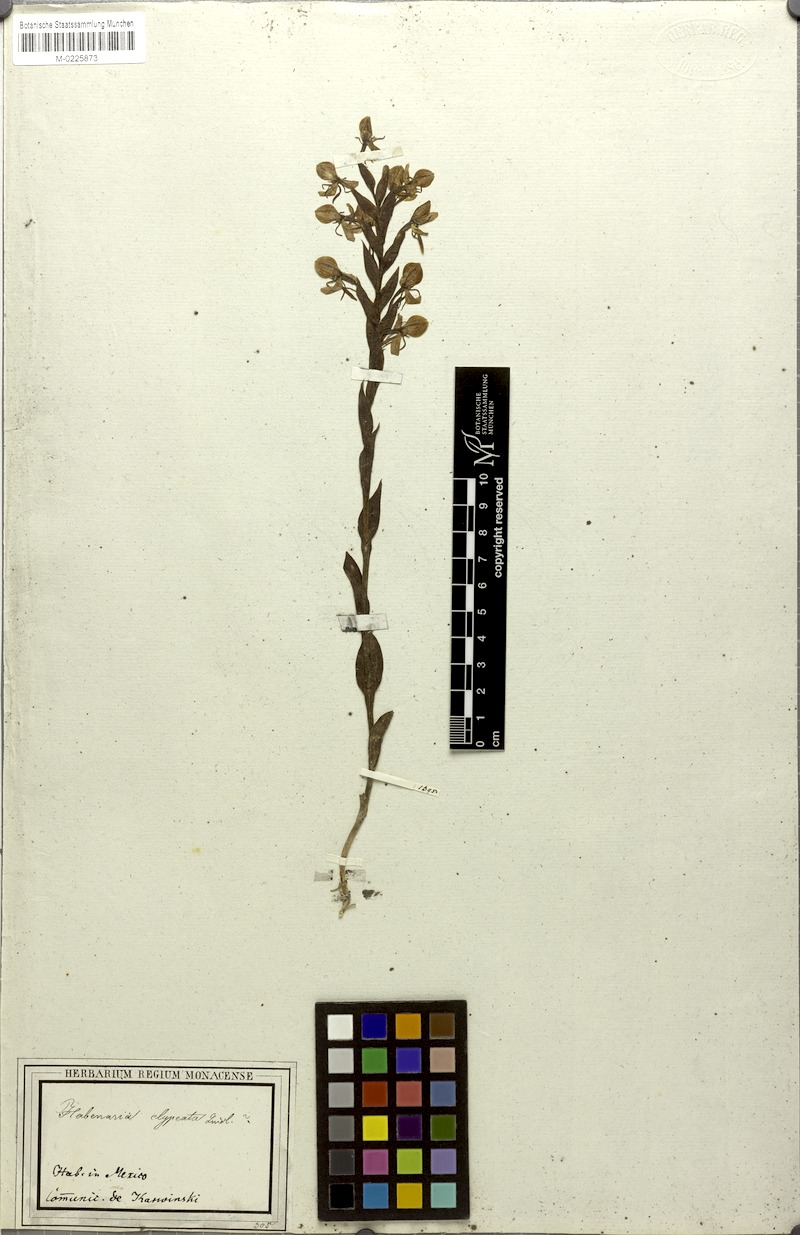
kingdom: Plantae
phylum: Tracheophyta
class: Liliopsida
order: Asparagales
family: Orchidaceae
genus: Habenaria
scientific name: Habenaria clypeata
